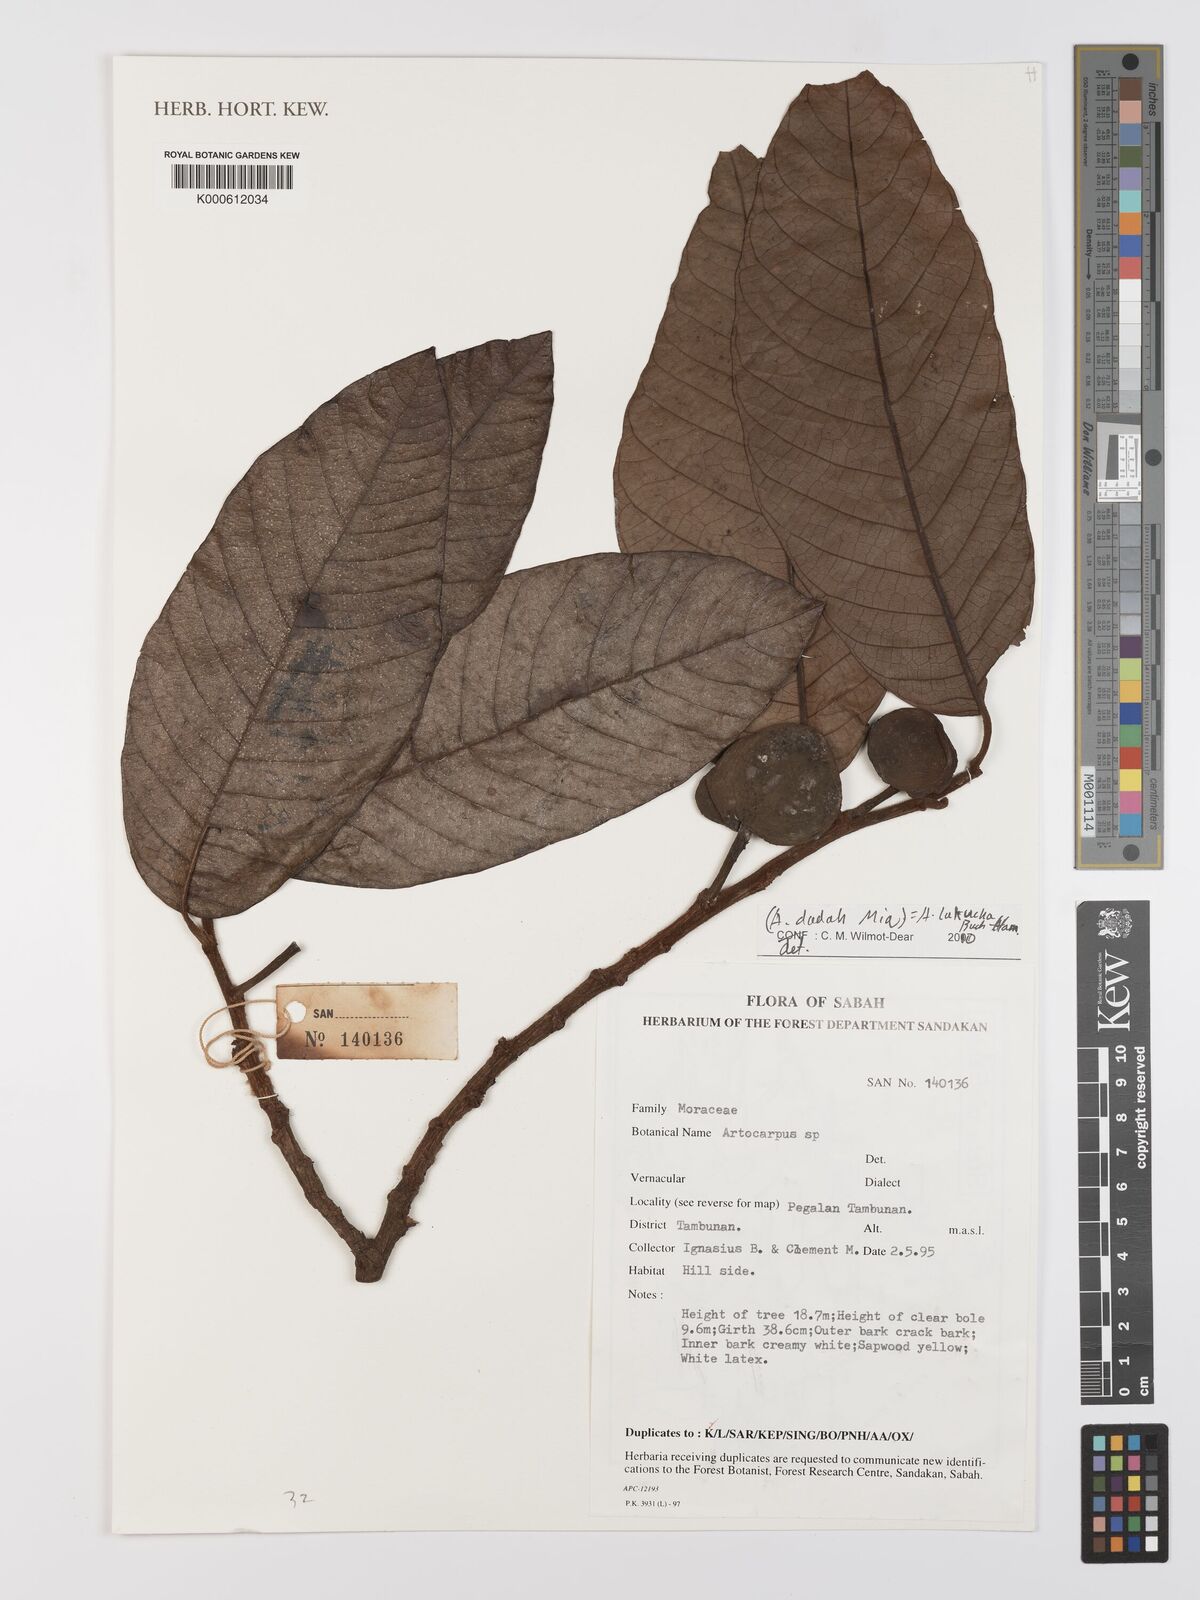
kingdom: Plantae
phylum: Tracheophyta
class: Magnoliopsida
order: Rosales
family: Moraceae
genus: Artocarpus
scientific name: Artocarpus lacucha
